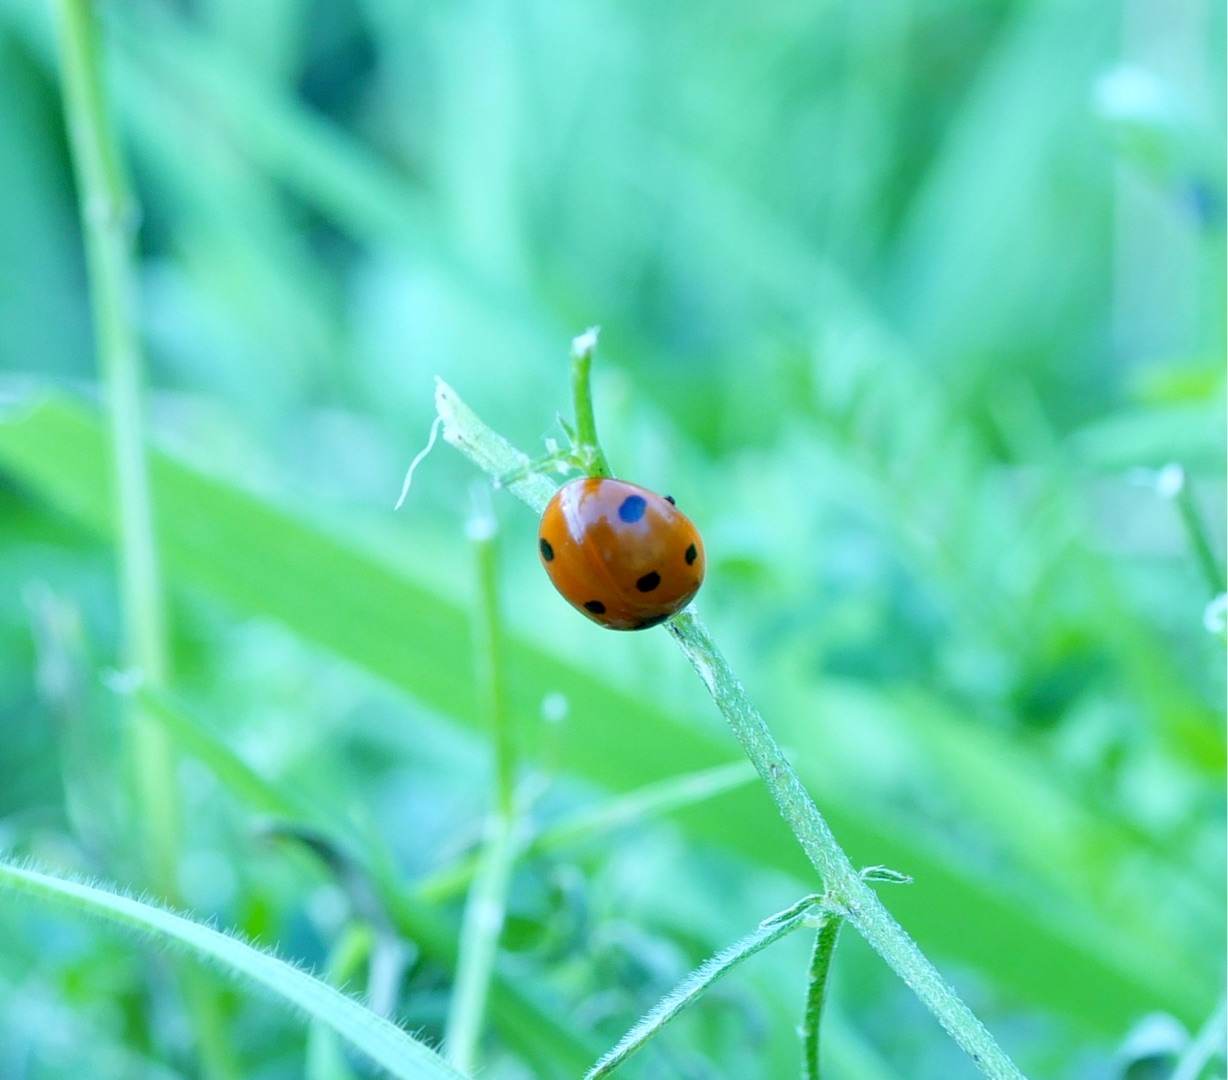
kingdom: Animalia
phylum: Arthropoda
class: Insecta
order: Coleoptera
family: Coccinellidae
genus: Coccinella
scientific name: Coccinella septempunctata
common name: Syvplettet mariehøne
